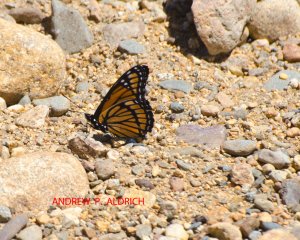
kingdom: Animalia
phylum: Arthropoda
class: Insecta
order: Lepidoptera
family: Nymphalidae
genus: Limenitis
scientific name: Limenitis archippus
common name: Viceroy
